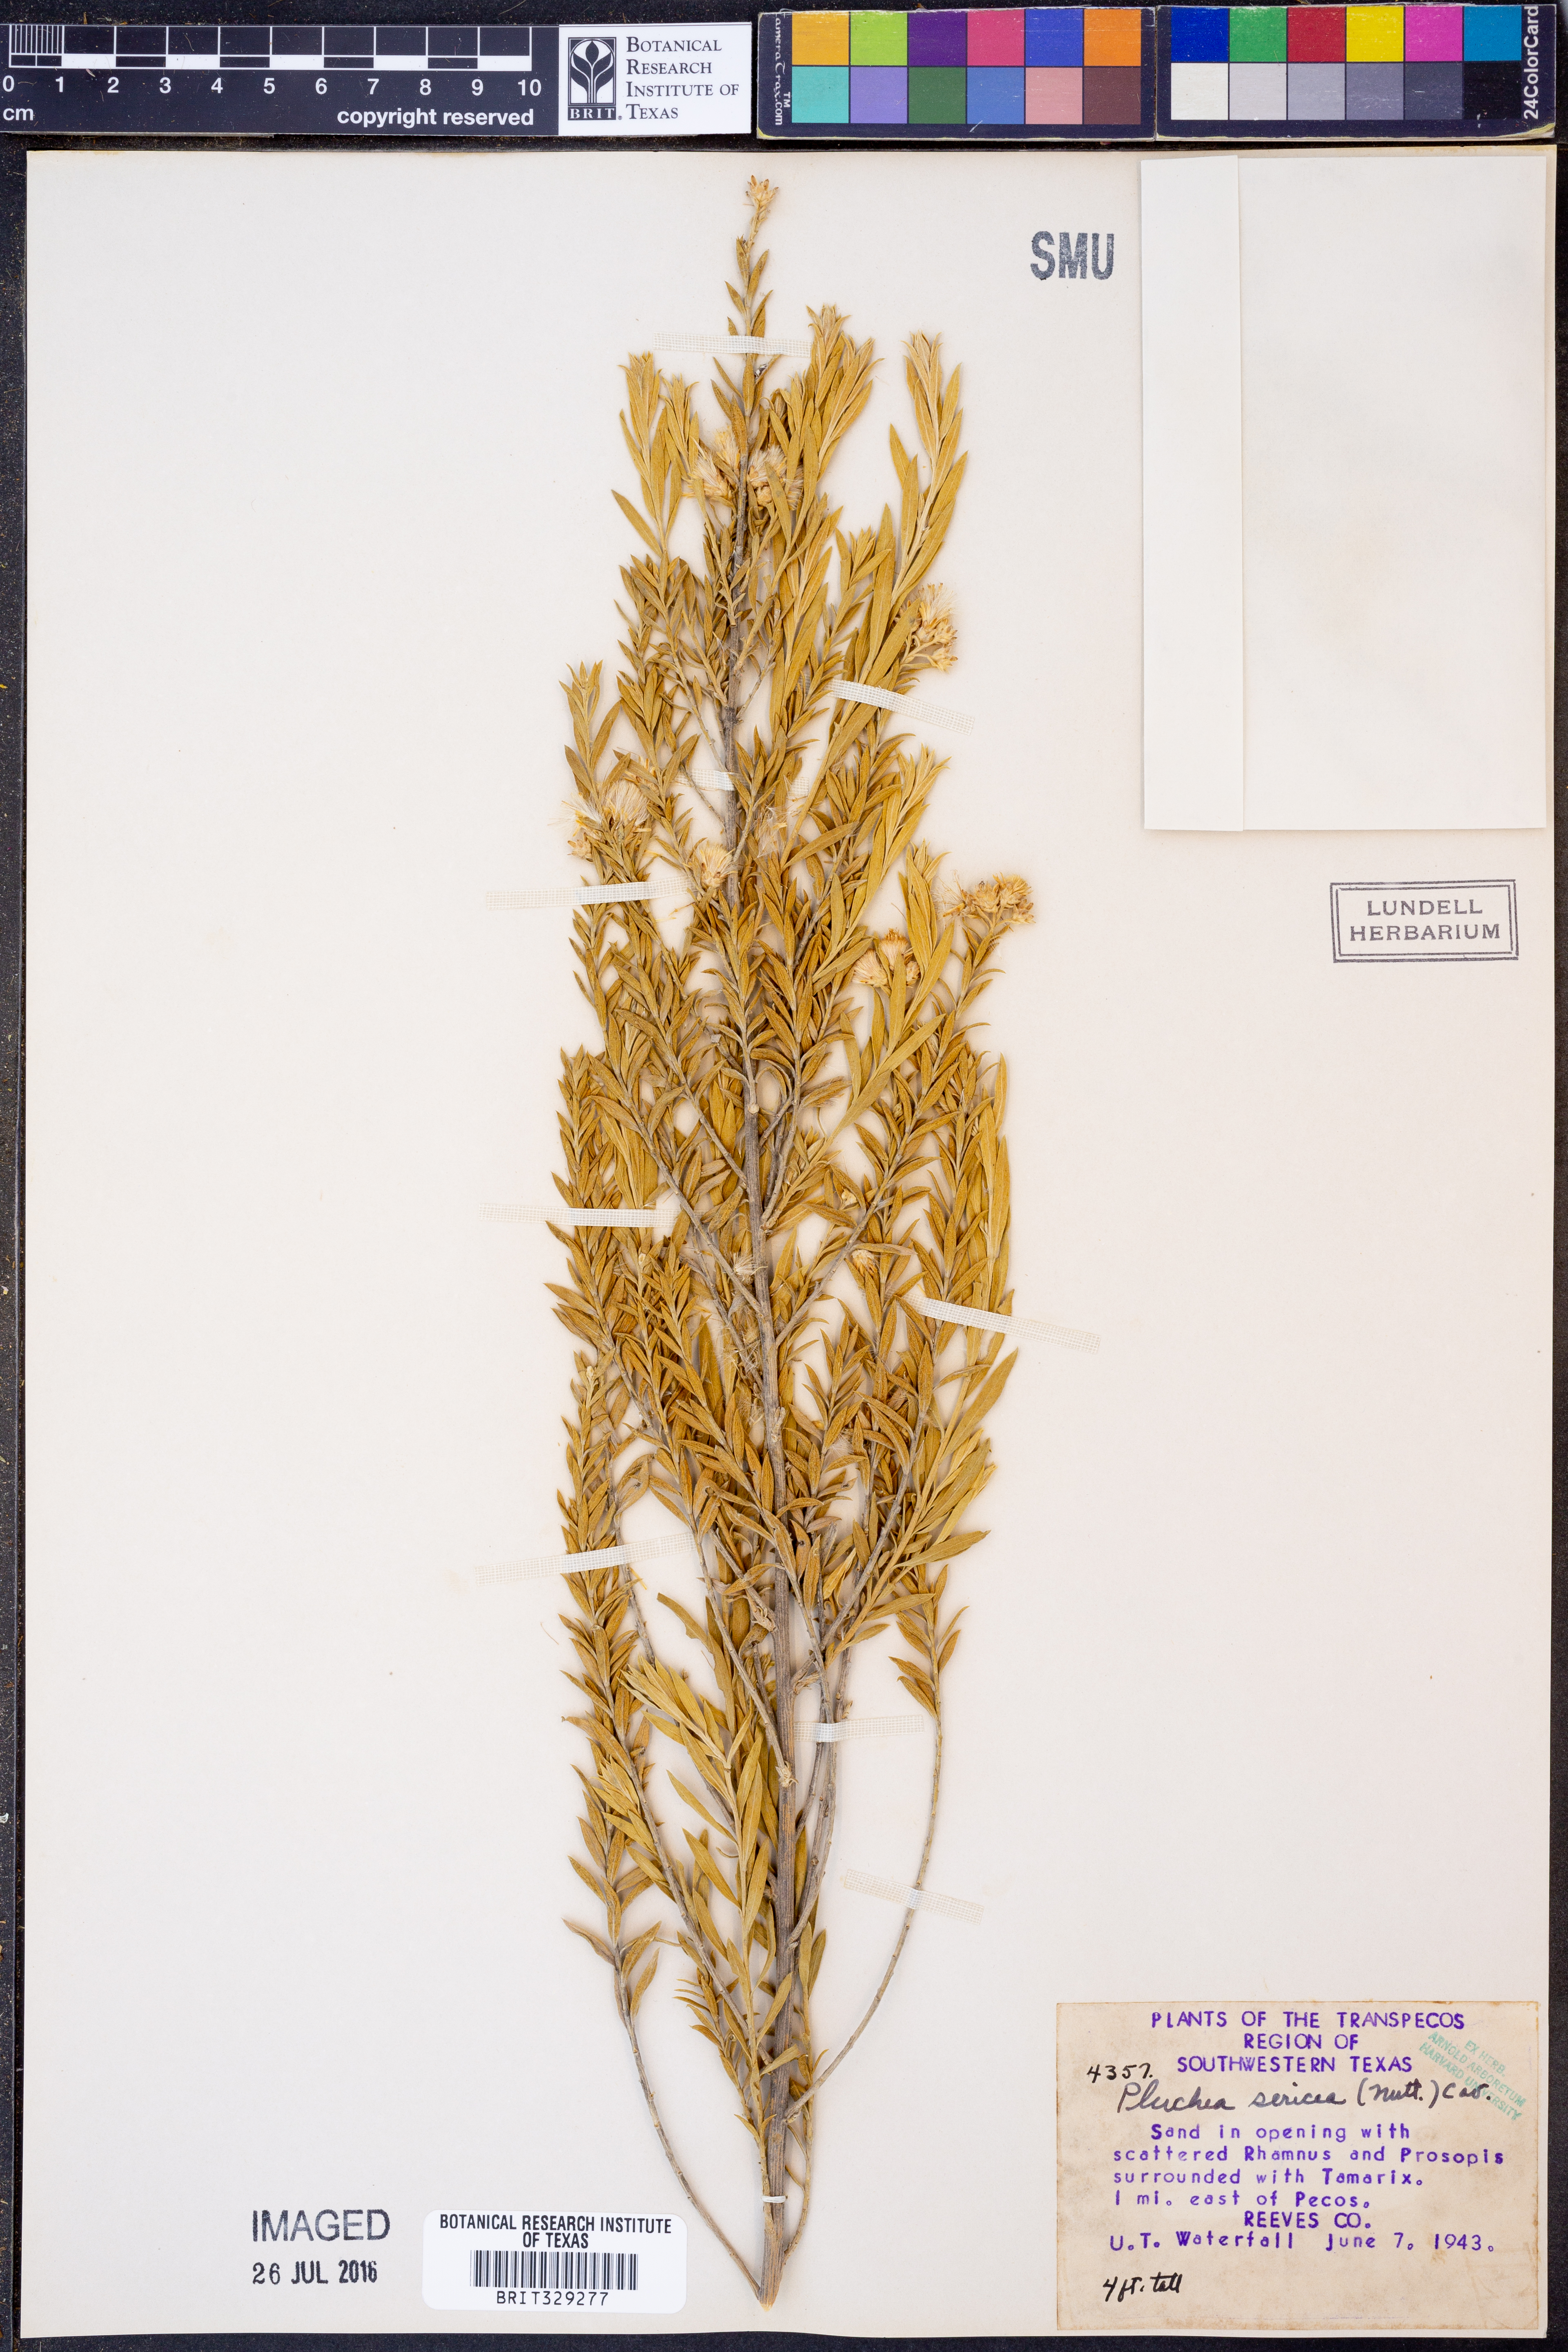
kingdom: Plantae
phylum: Tracheophyta
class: Magnoliopsida
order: Asterales
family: Asteraceae
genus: Pluchea
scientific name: Pluchea sericea
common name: Arrow-weed
